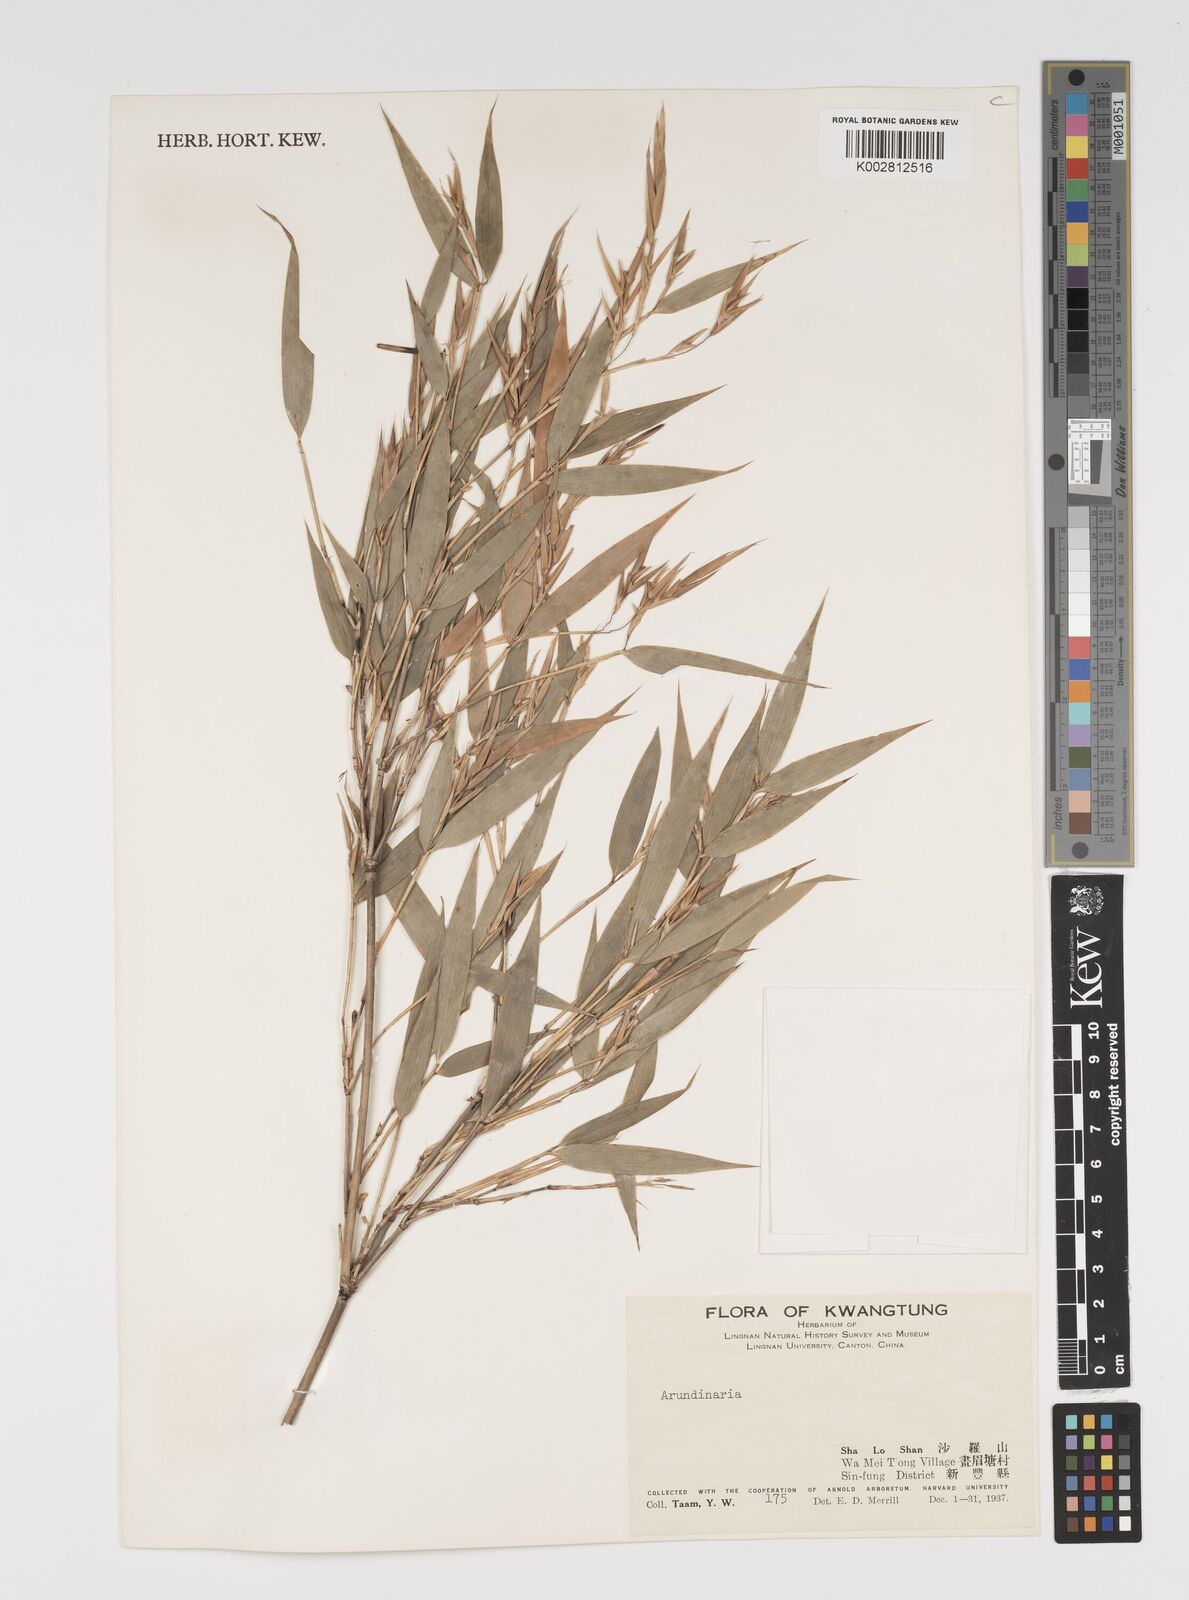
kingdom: Plantae
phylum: Tracheophyta
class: Liliopsida
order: Poales
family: Poaceae
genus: Arundinaria
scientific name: Arundinaria
